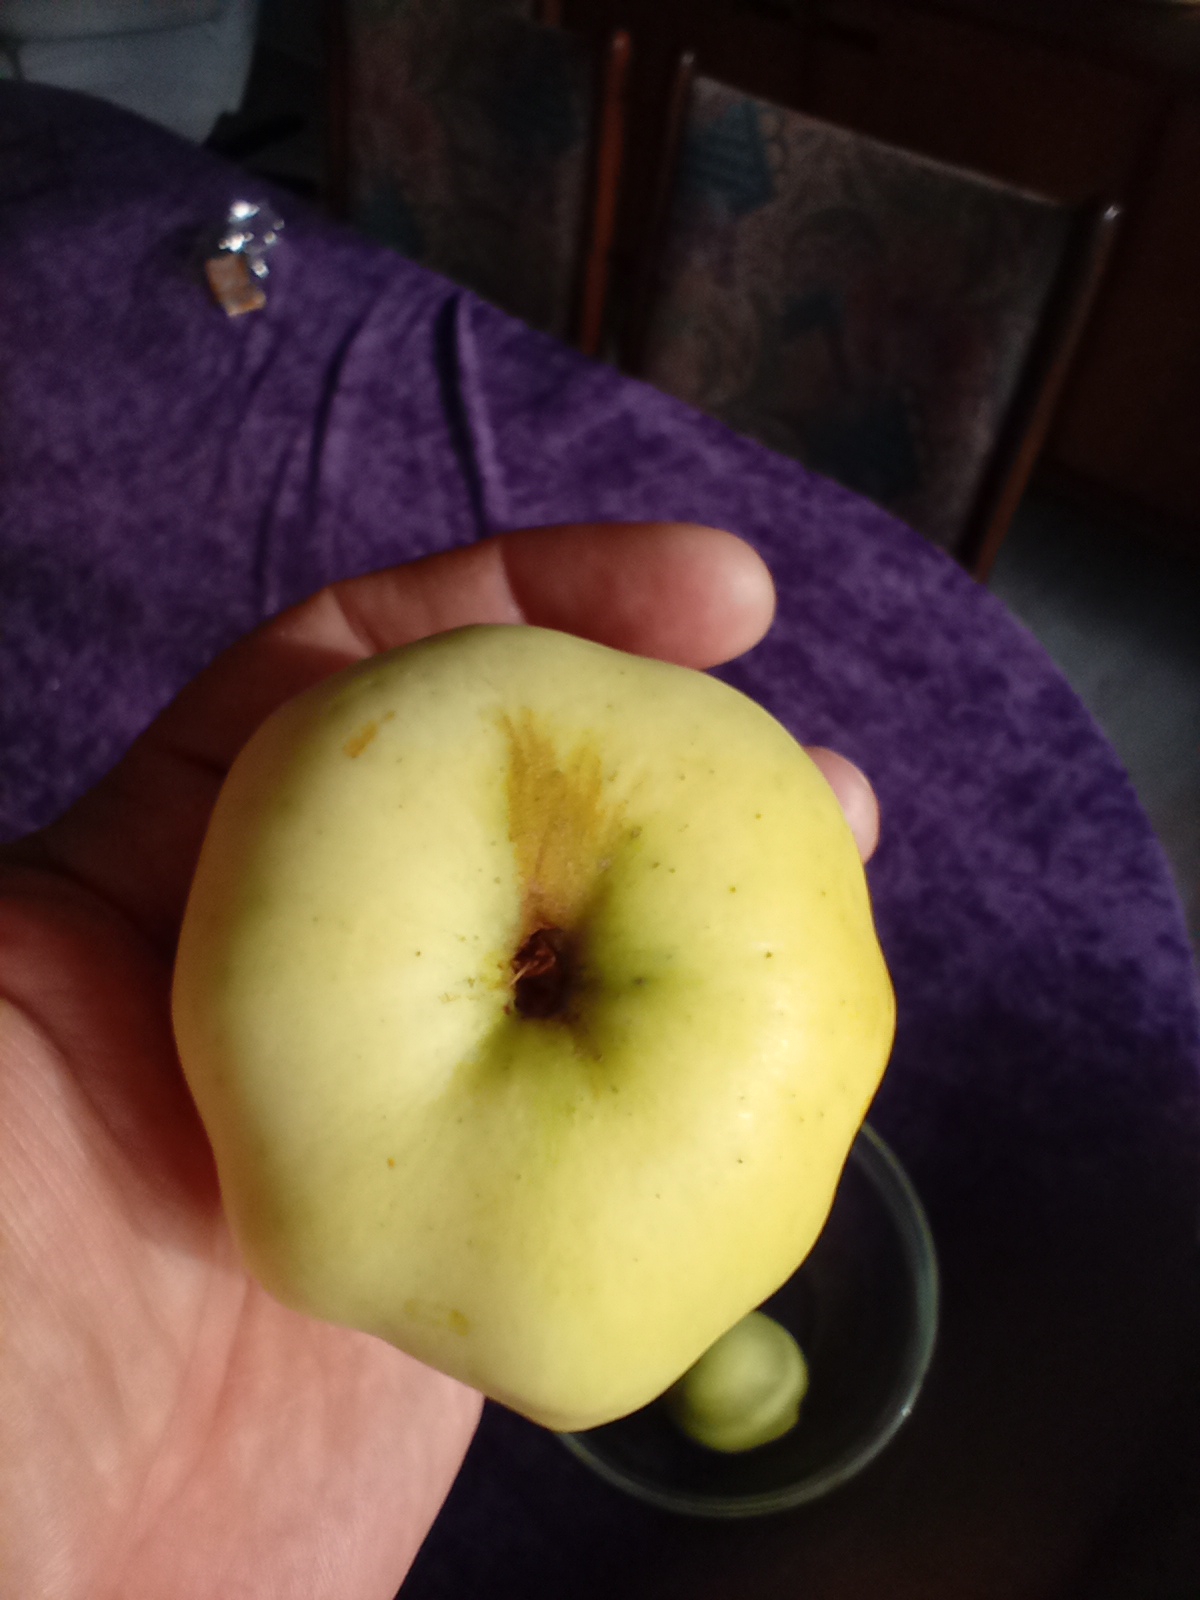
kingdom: Plantae
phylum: Tracheophyta
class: Magnoliopsida
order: Rosales
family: Rosaceae
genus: Malus
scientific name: Malus domestica
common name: Sød-æble
